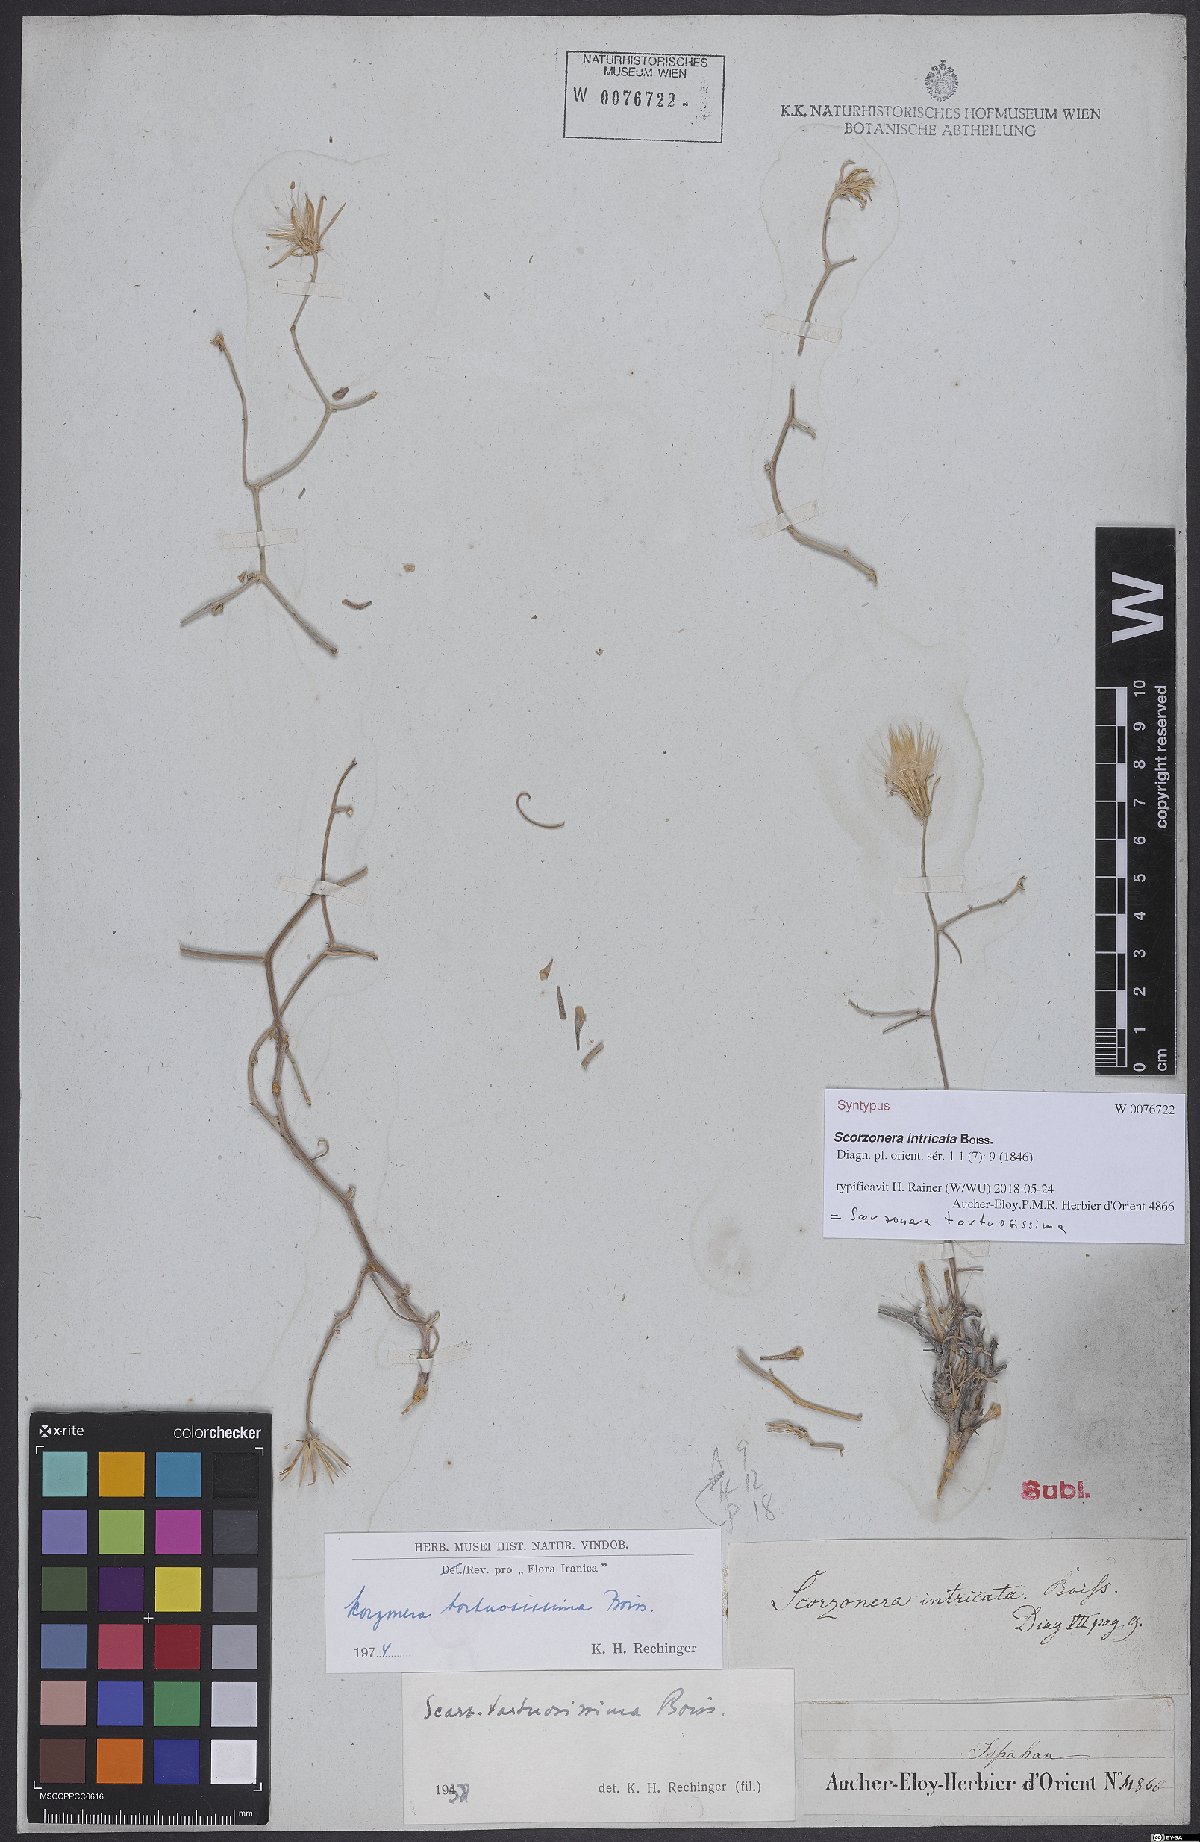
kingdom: Plantae
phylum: Tracheophyta
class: Magnoliopsida
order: Asterales
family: Asteraceae
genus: Ramaliella
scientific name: Ramaliella tortuosissima
